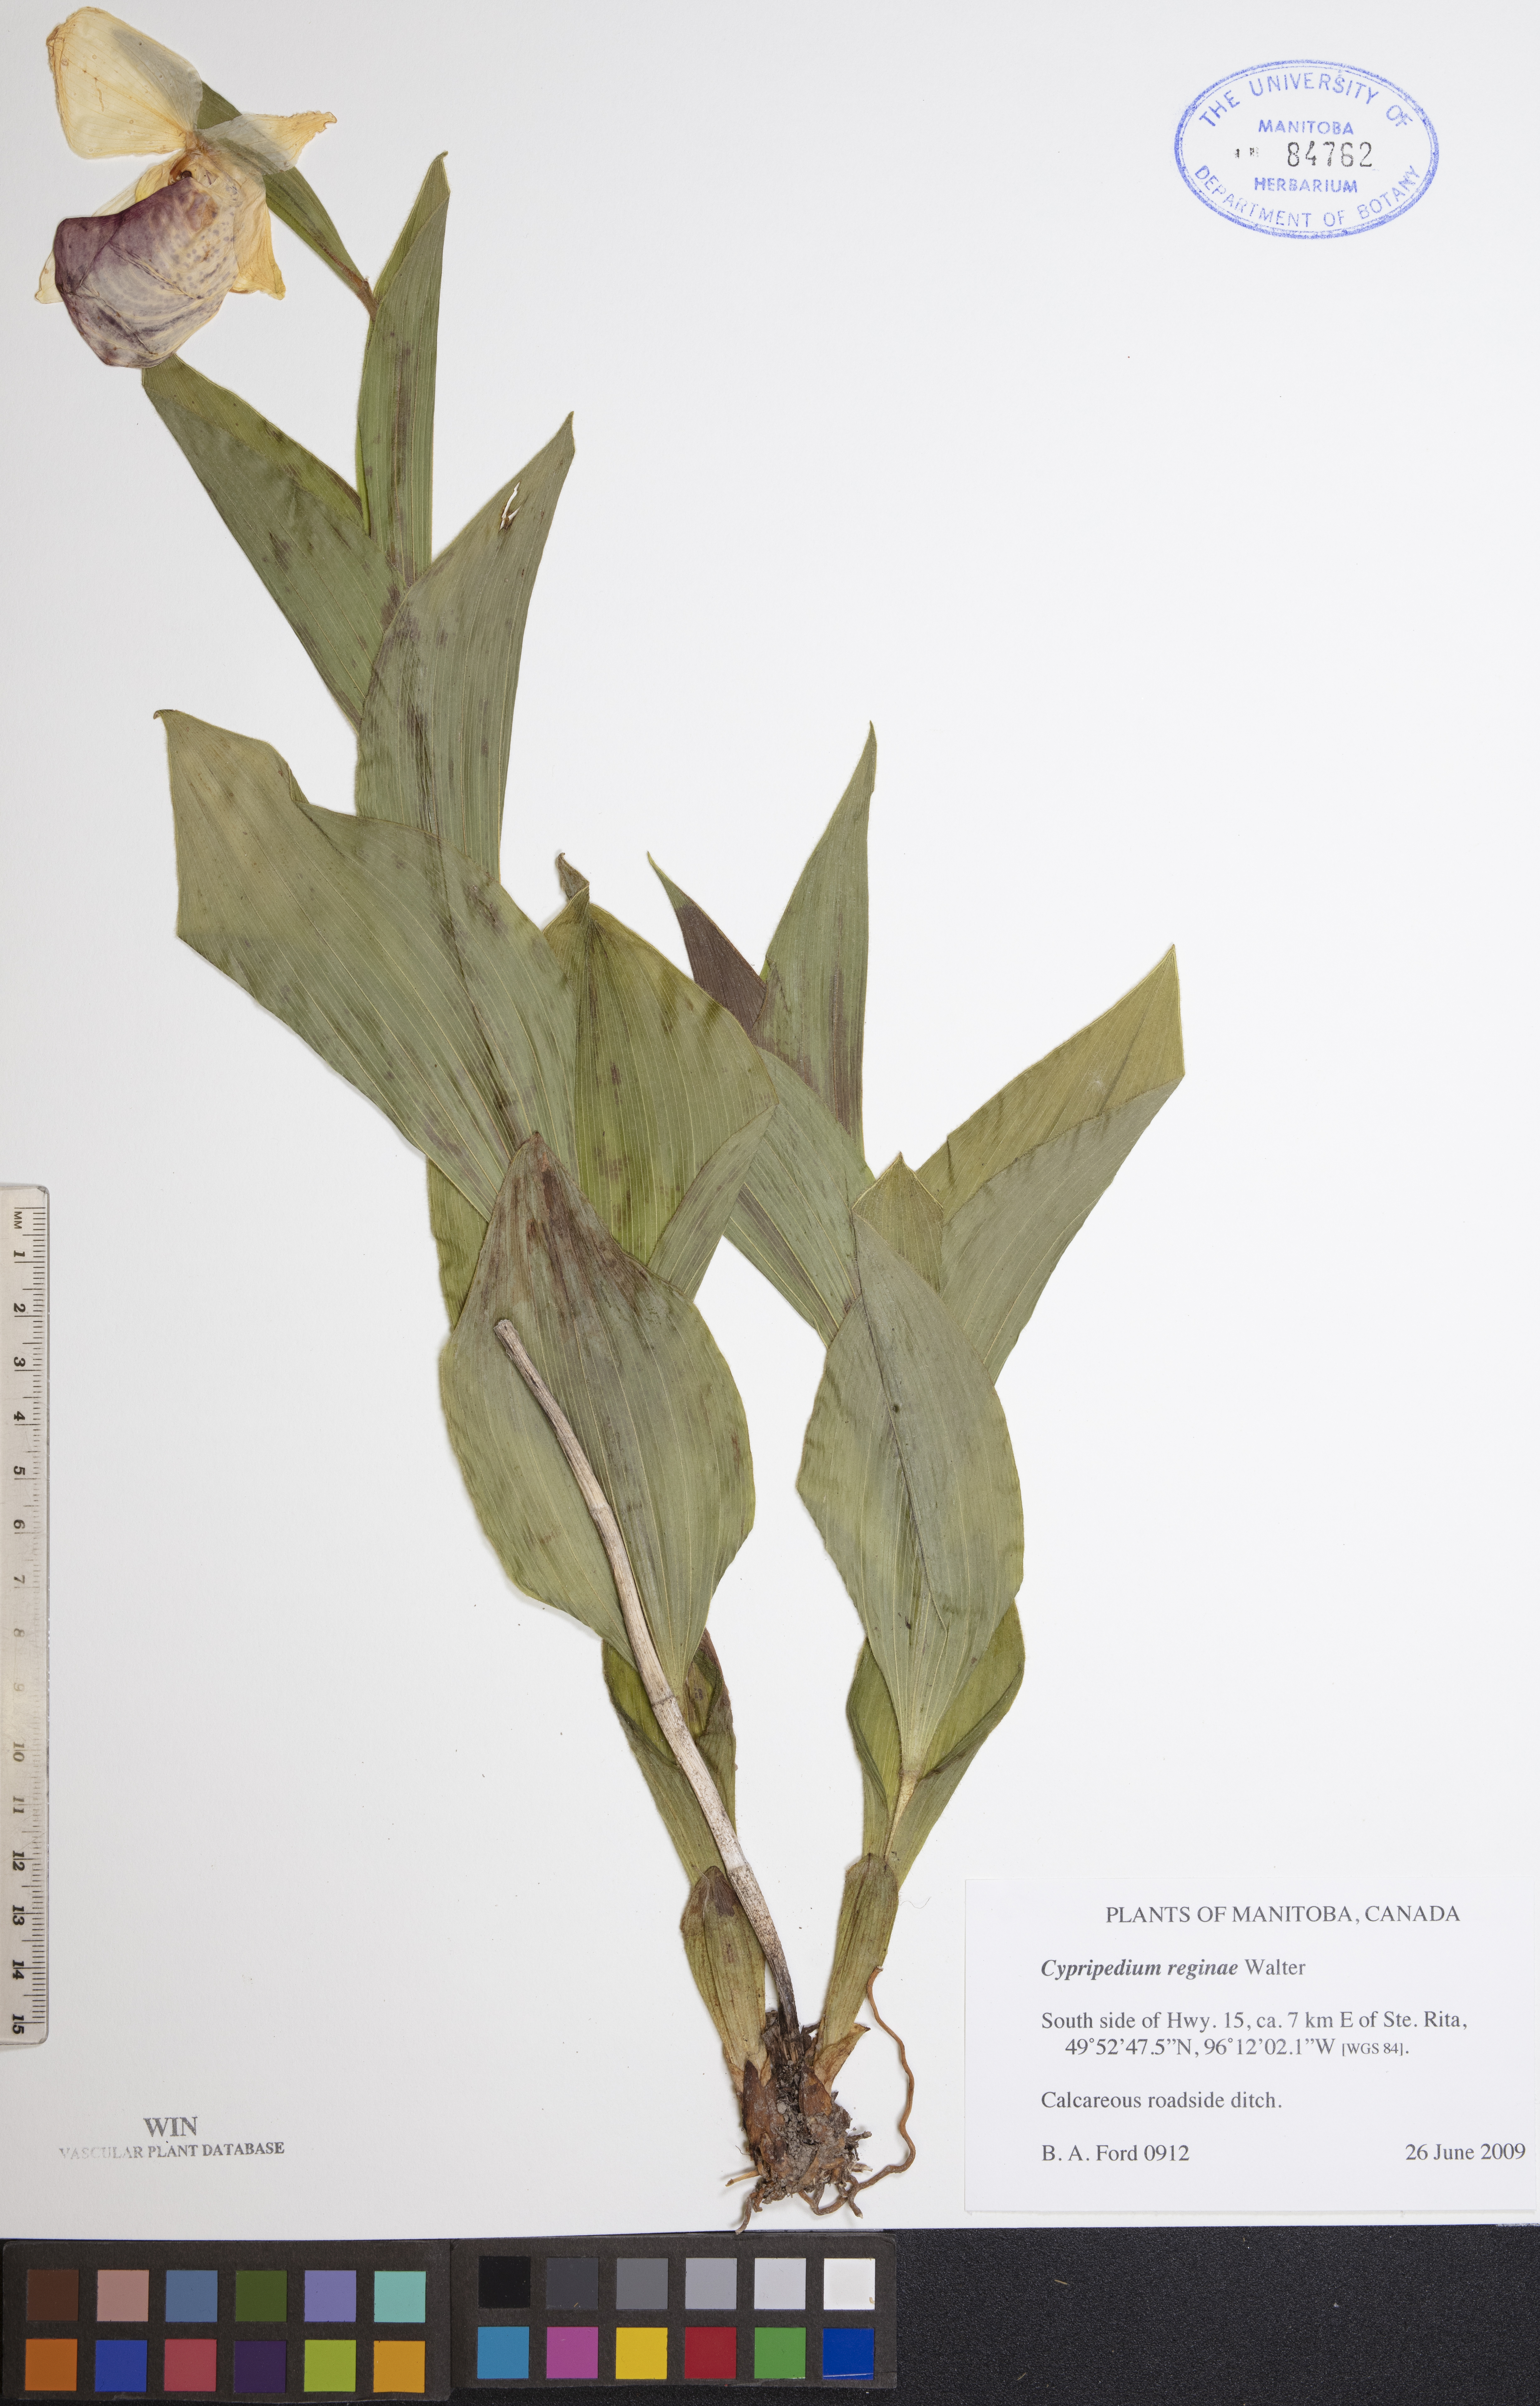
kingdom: Plantae
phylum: Tracheophyta
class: Liliopsida
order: Asparagales
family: Orchidaceae
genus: Cypripedium
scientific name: Cypripedium reginae
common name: Queen lady's-slipper
